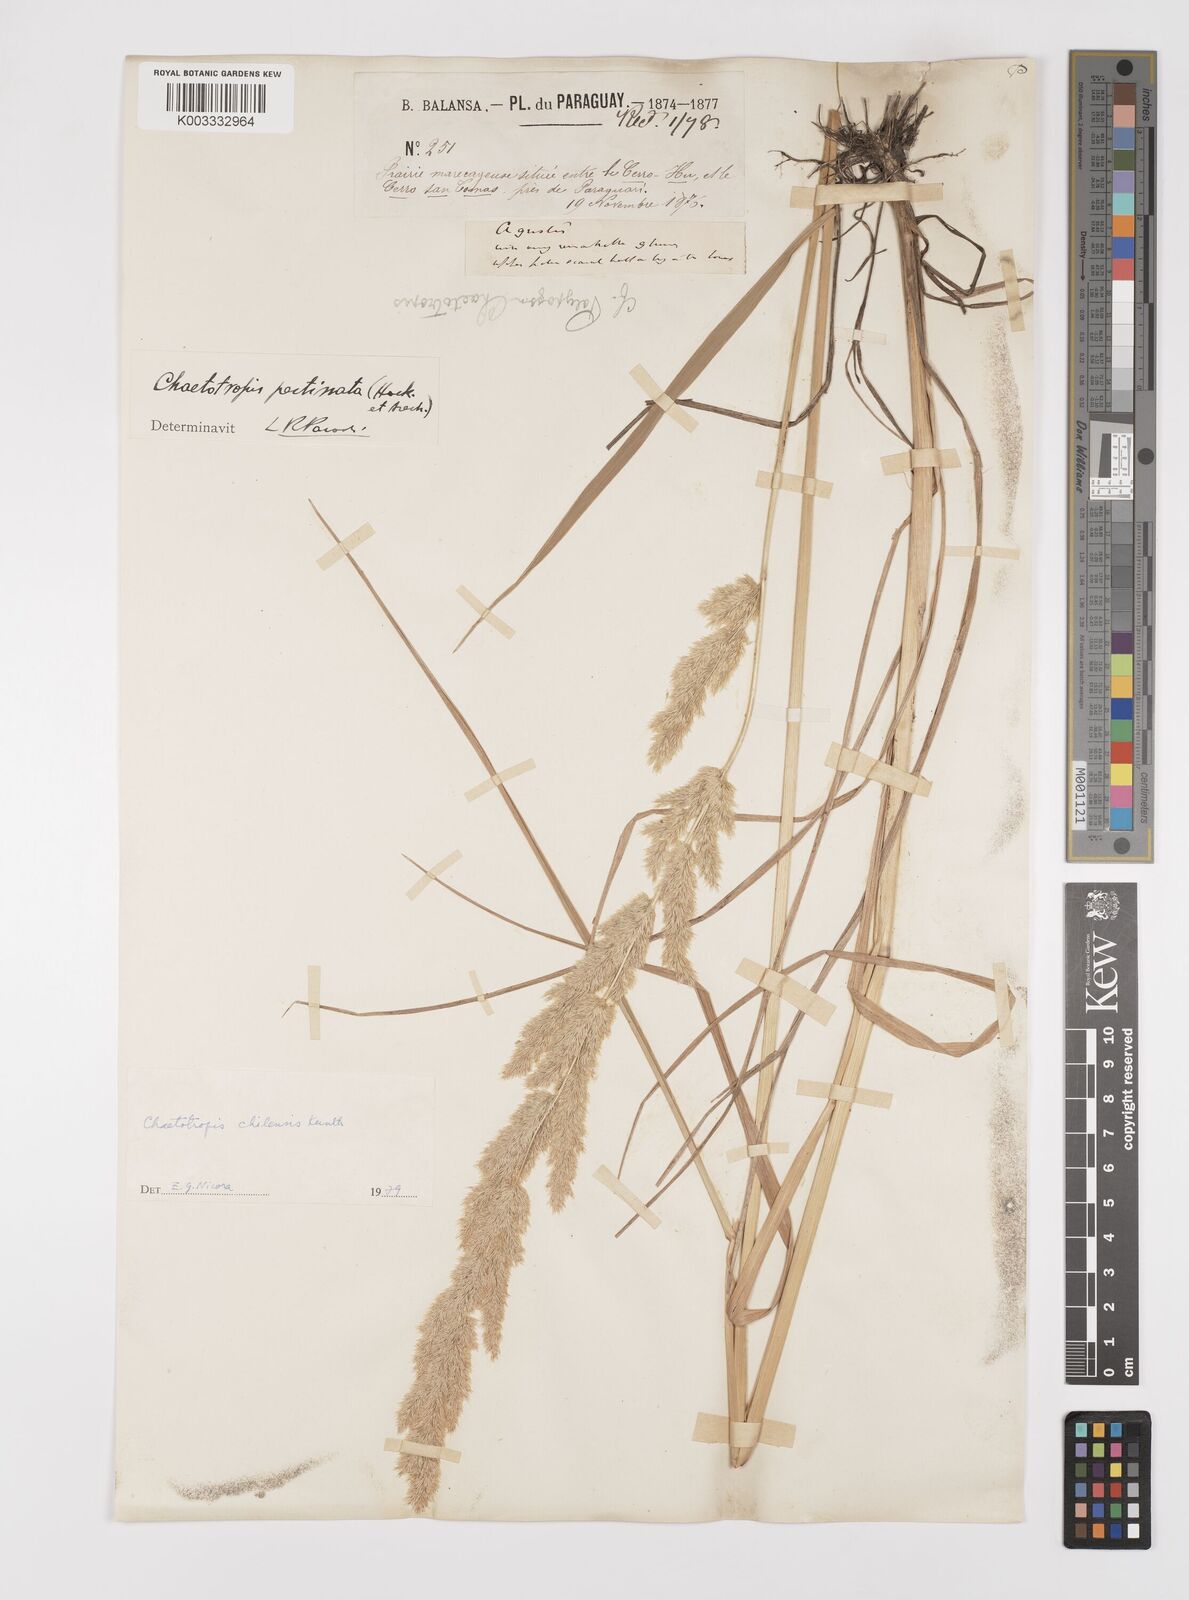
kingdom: Plantae
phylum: Tracheophyta
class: Liliopsida
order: Poales
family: Poaceae
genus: Polypogon
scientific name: Polypogon chilensis
